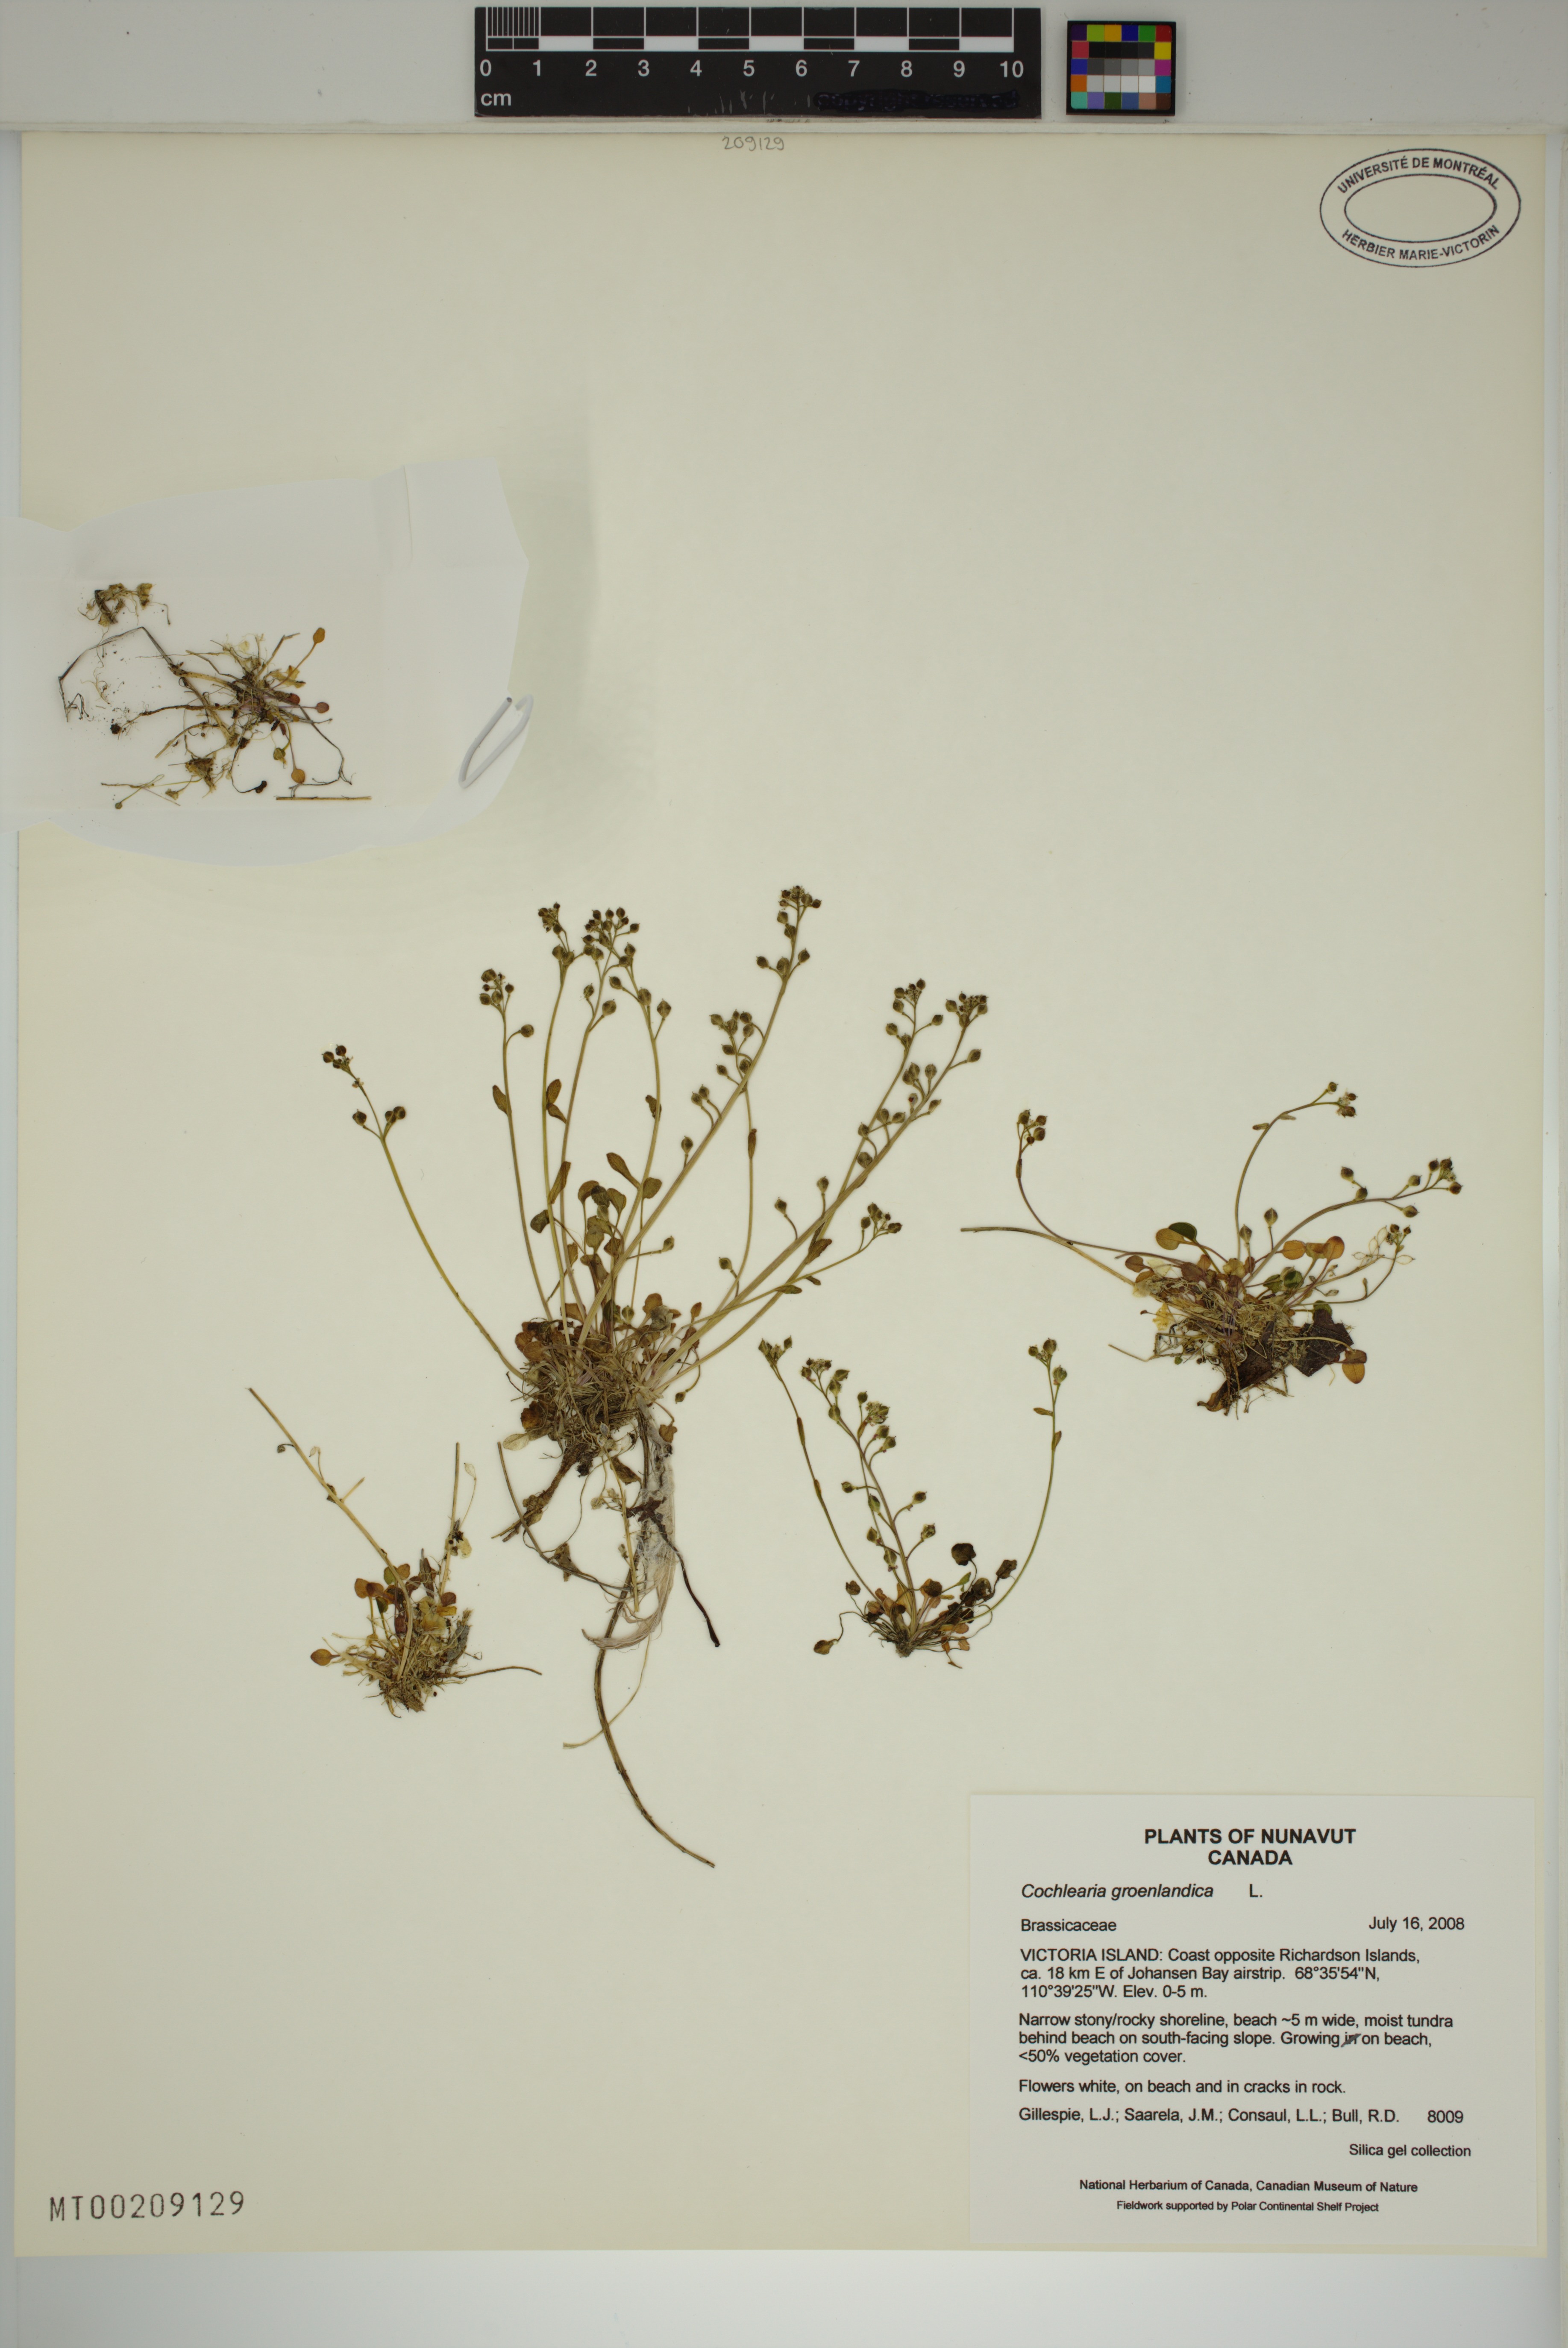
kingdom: Plantae
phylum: Tracheophyta
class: Magnoliopsida
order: Brassicales
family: Brassicaceae
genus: Cochlearia
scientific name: Cochlearia groenlandica
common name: Danish scurvygrass
